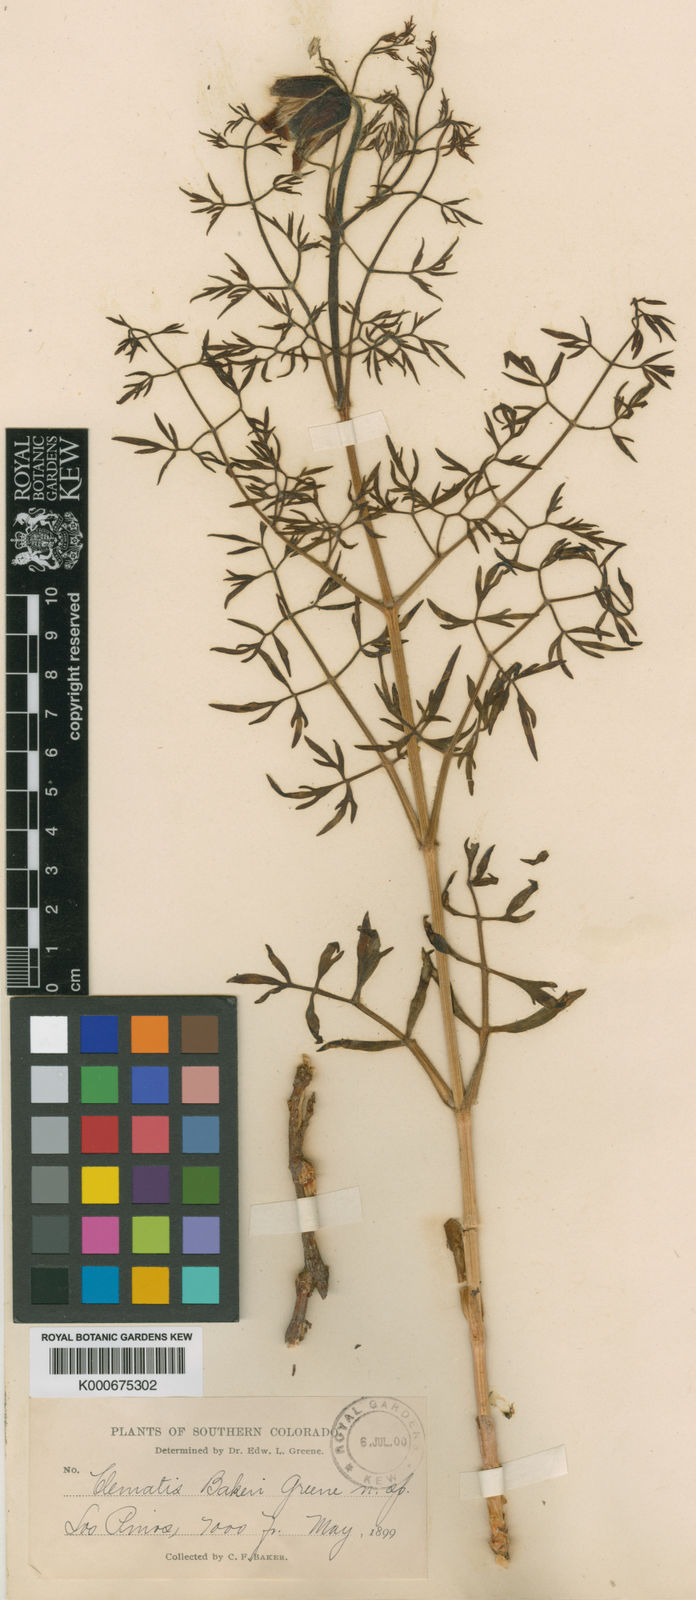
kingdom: Plantae
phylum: Tracheophyta
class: Magnoliopsida
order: Ranunculales
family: Ranunculaceae
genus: Clematis
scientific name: Clematis hirsutissima
